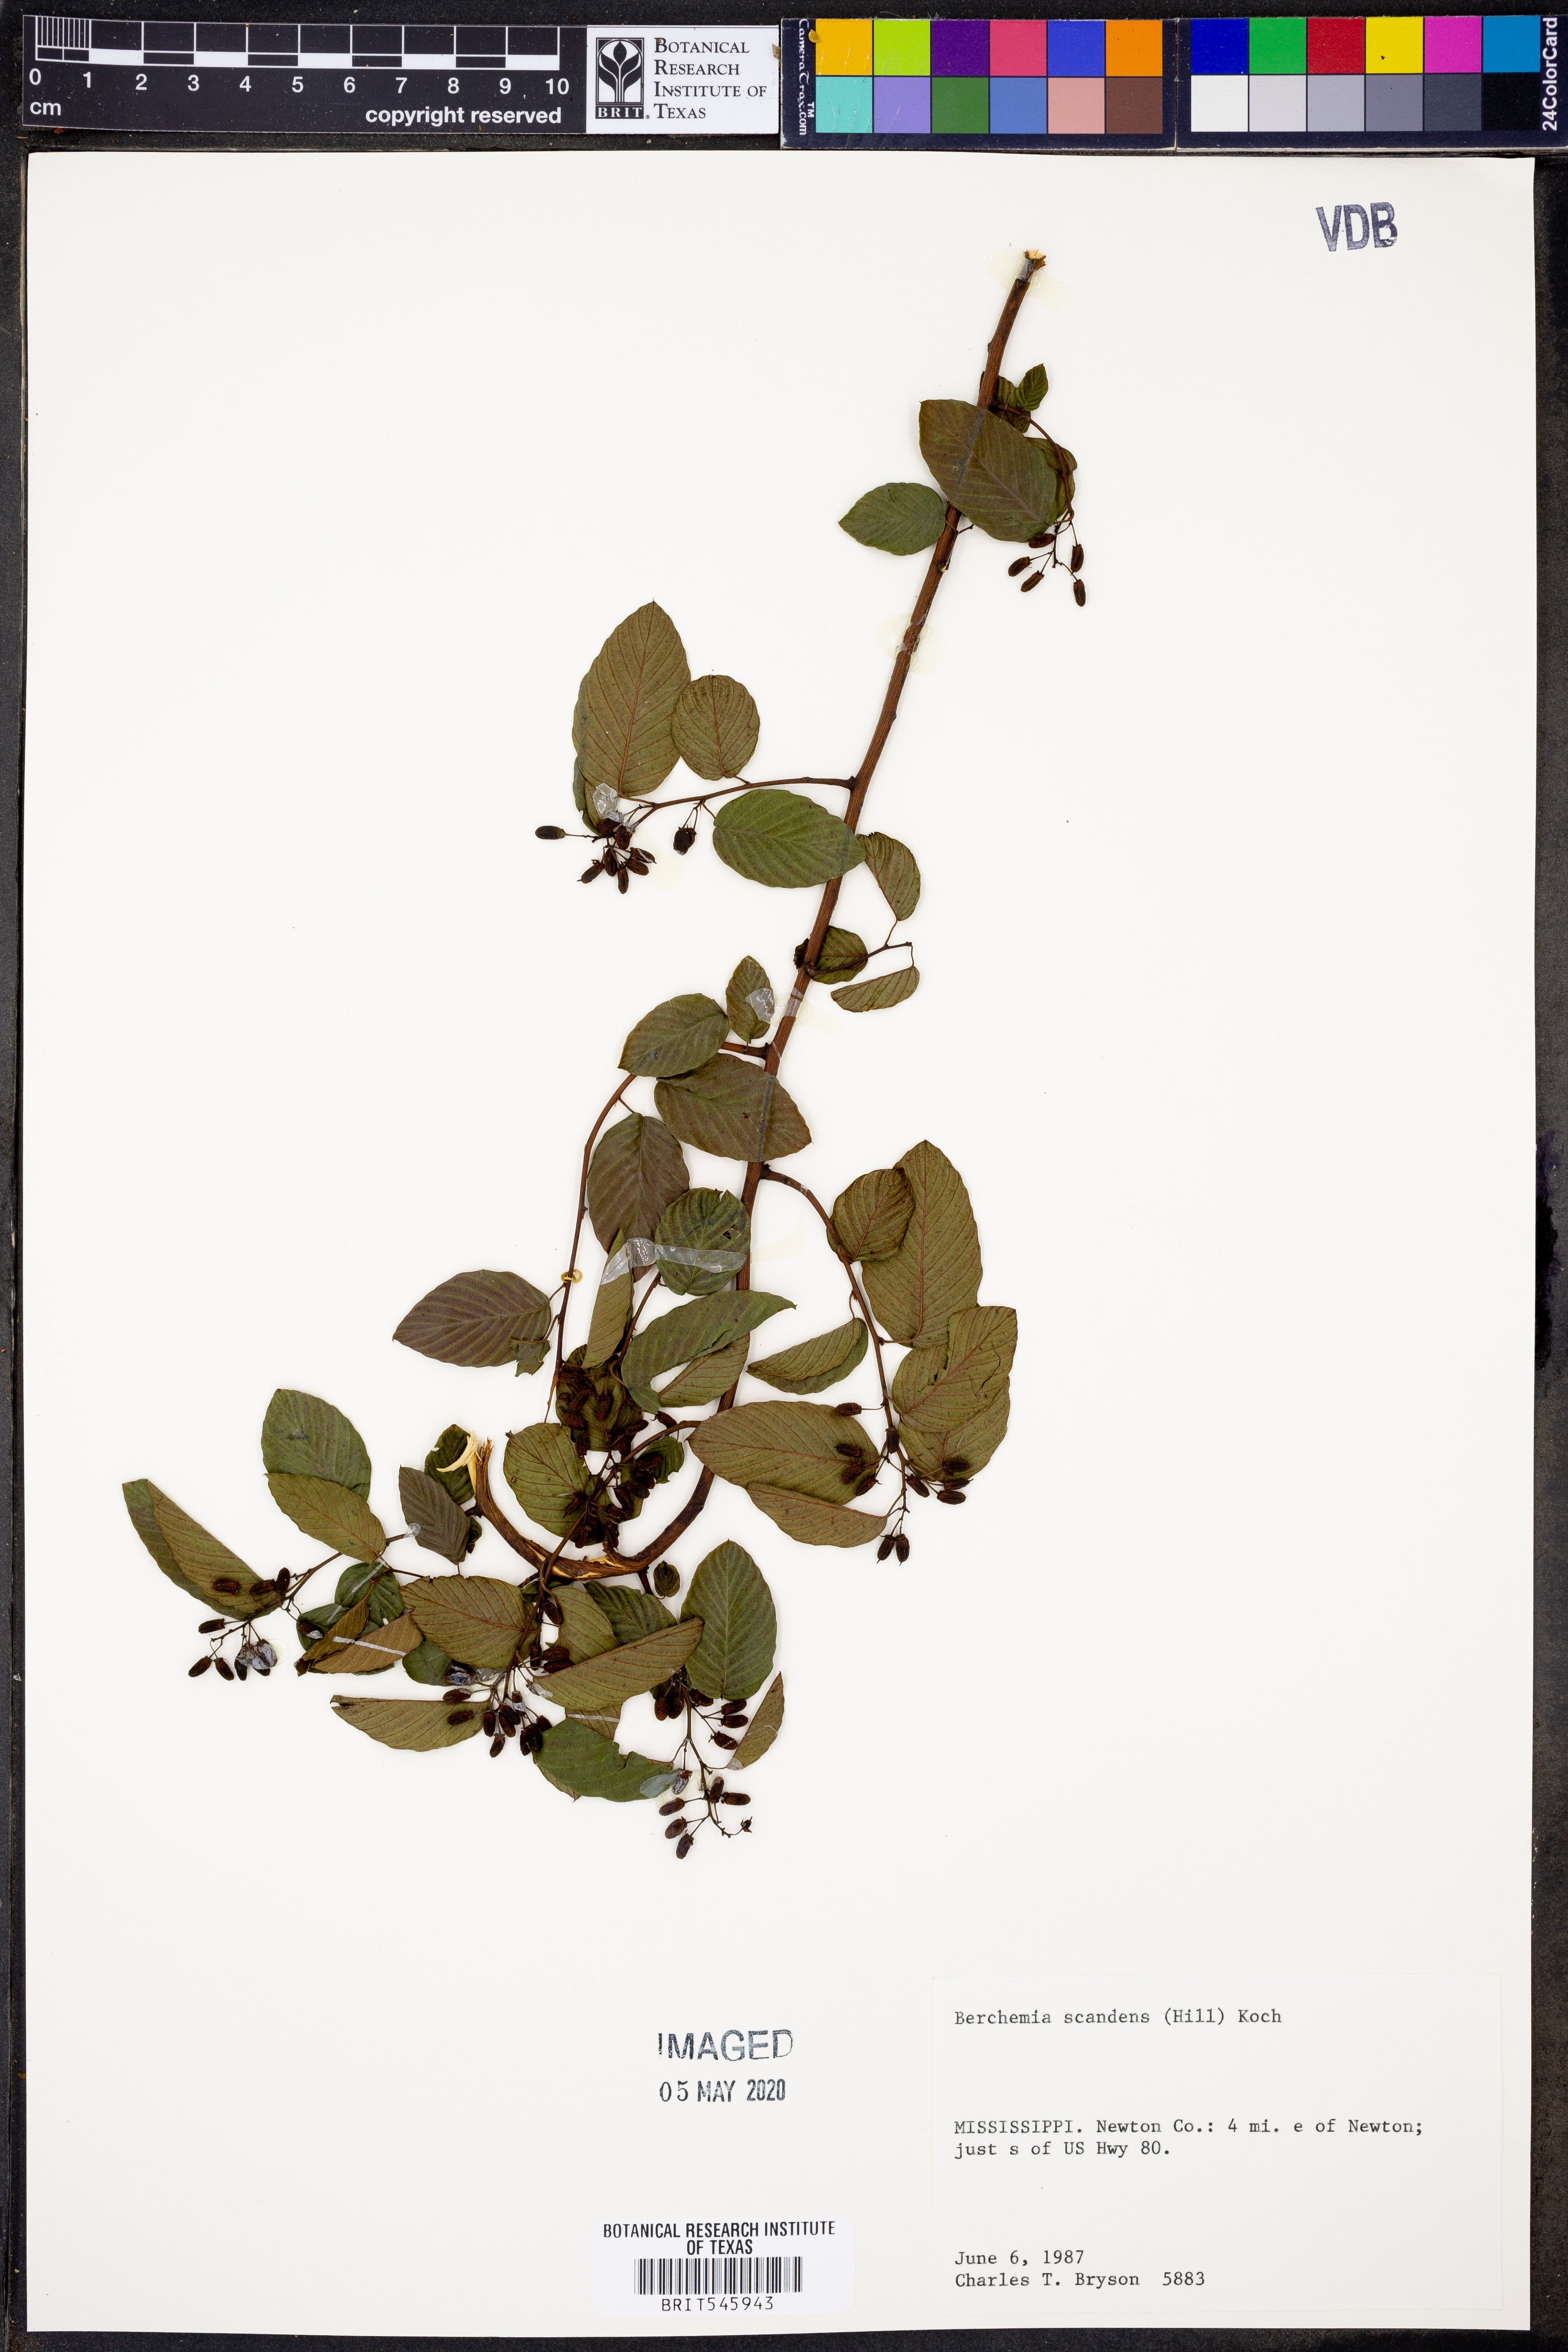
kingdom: Plantae
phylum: Tracheophyta
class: Magnoliopsida
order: Rosales
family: Rhamnaceae
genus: Berchemia
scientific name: Berchemia scandens
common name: Supplejack
